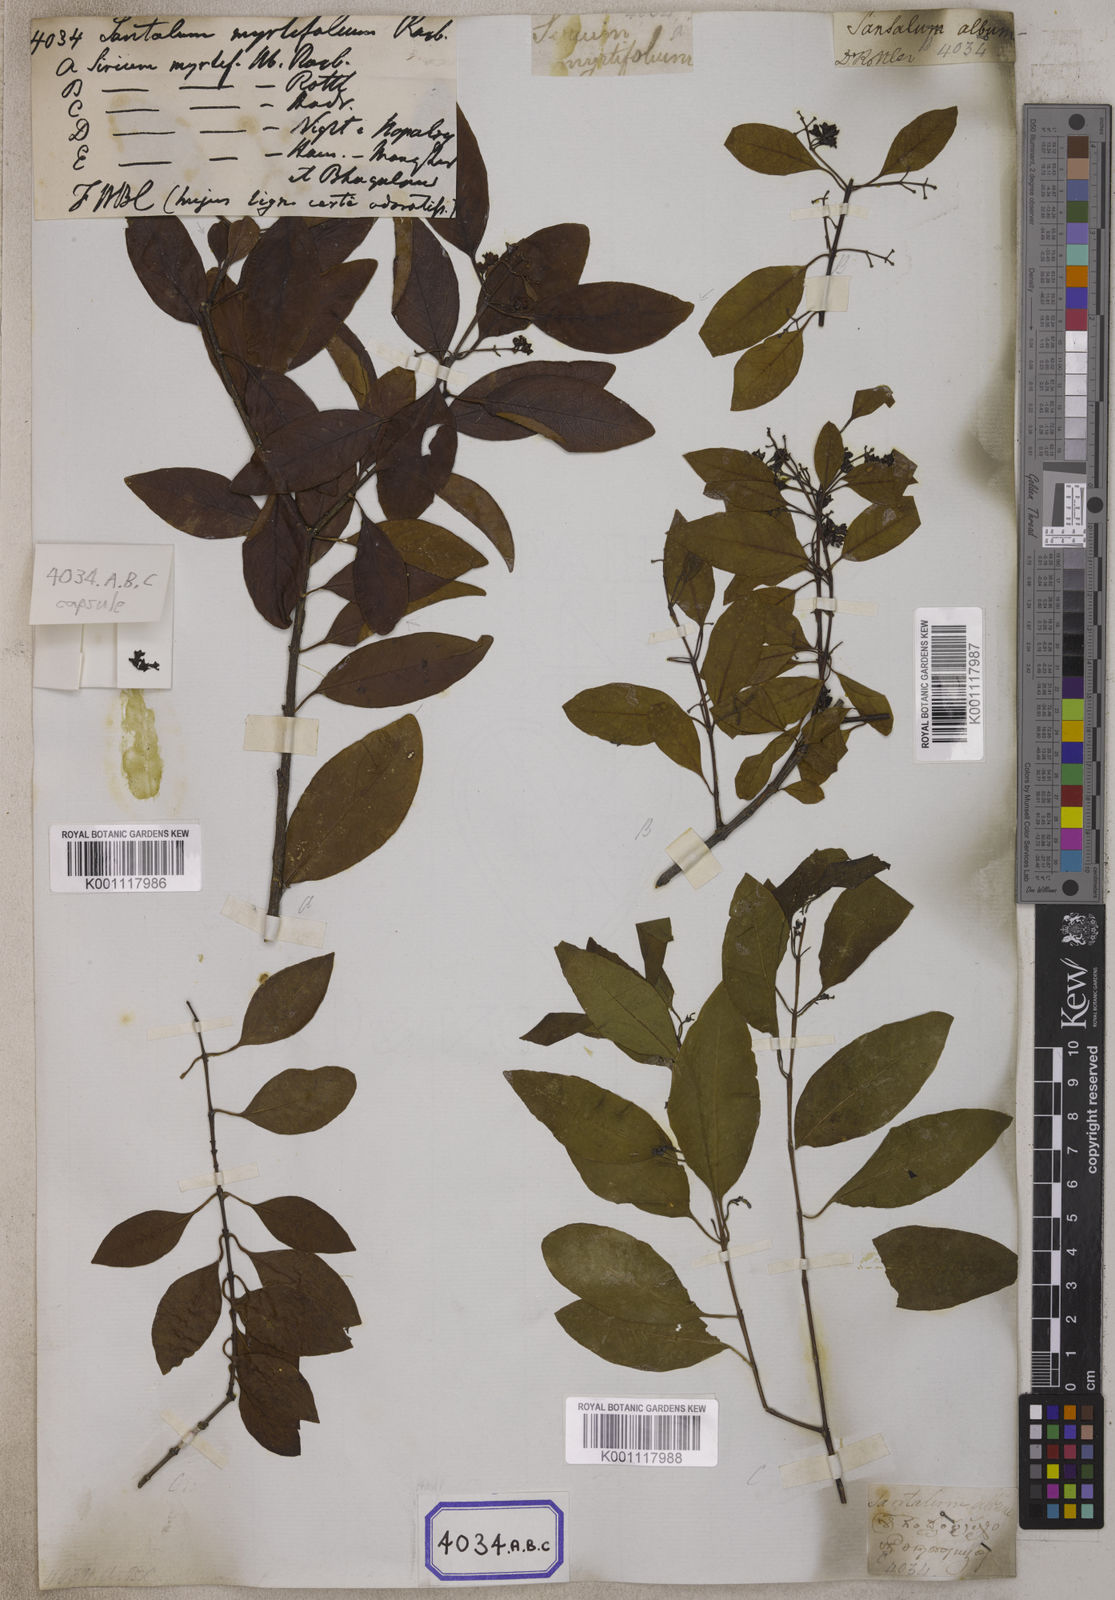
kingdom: Plantae
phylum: Tracheophyta
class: Magnoliopsida
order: Santalales
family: Santalaceae
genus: Santalum
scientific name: Santalum album
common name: Indian sandalwood
